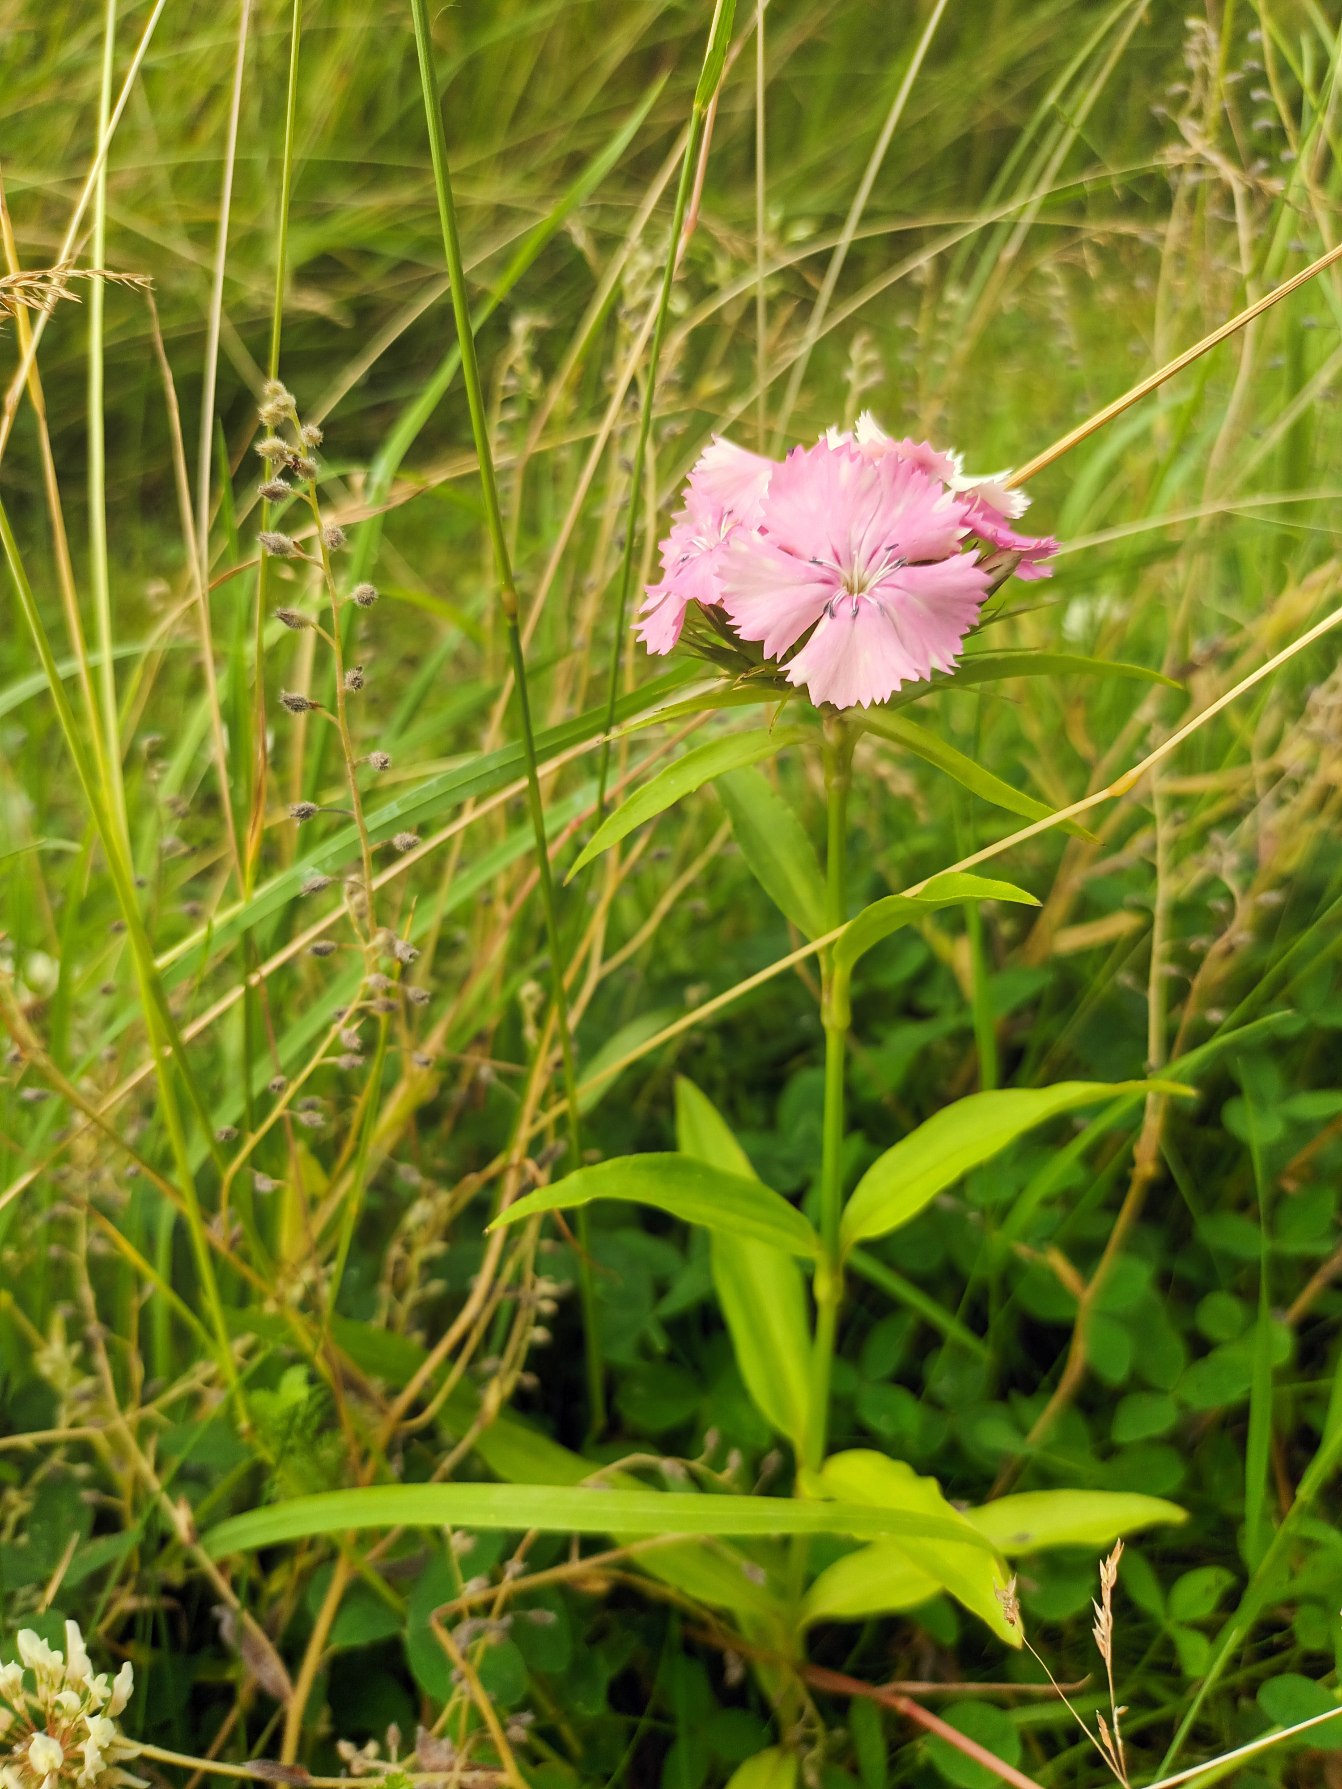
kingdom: Plantae
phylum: Tracheophyta
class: Magnoliopsida
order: Caryophyllales
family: Caryophyllaceae
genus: Dianthus
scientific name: Dianthus barbatus
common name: Studenter-nellike
